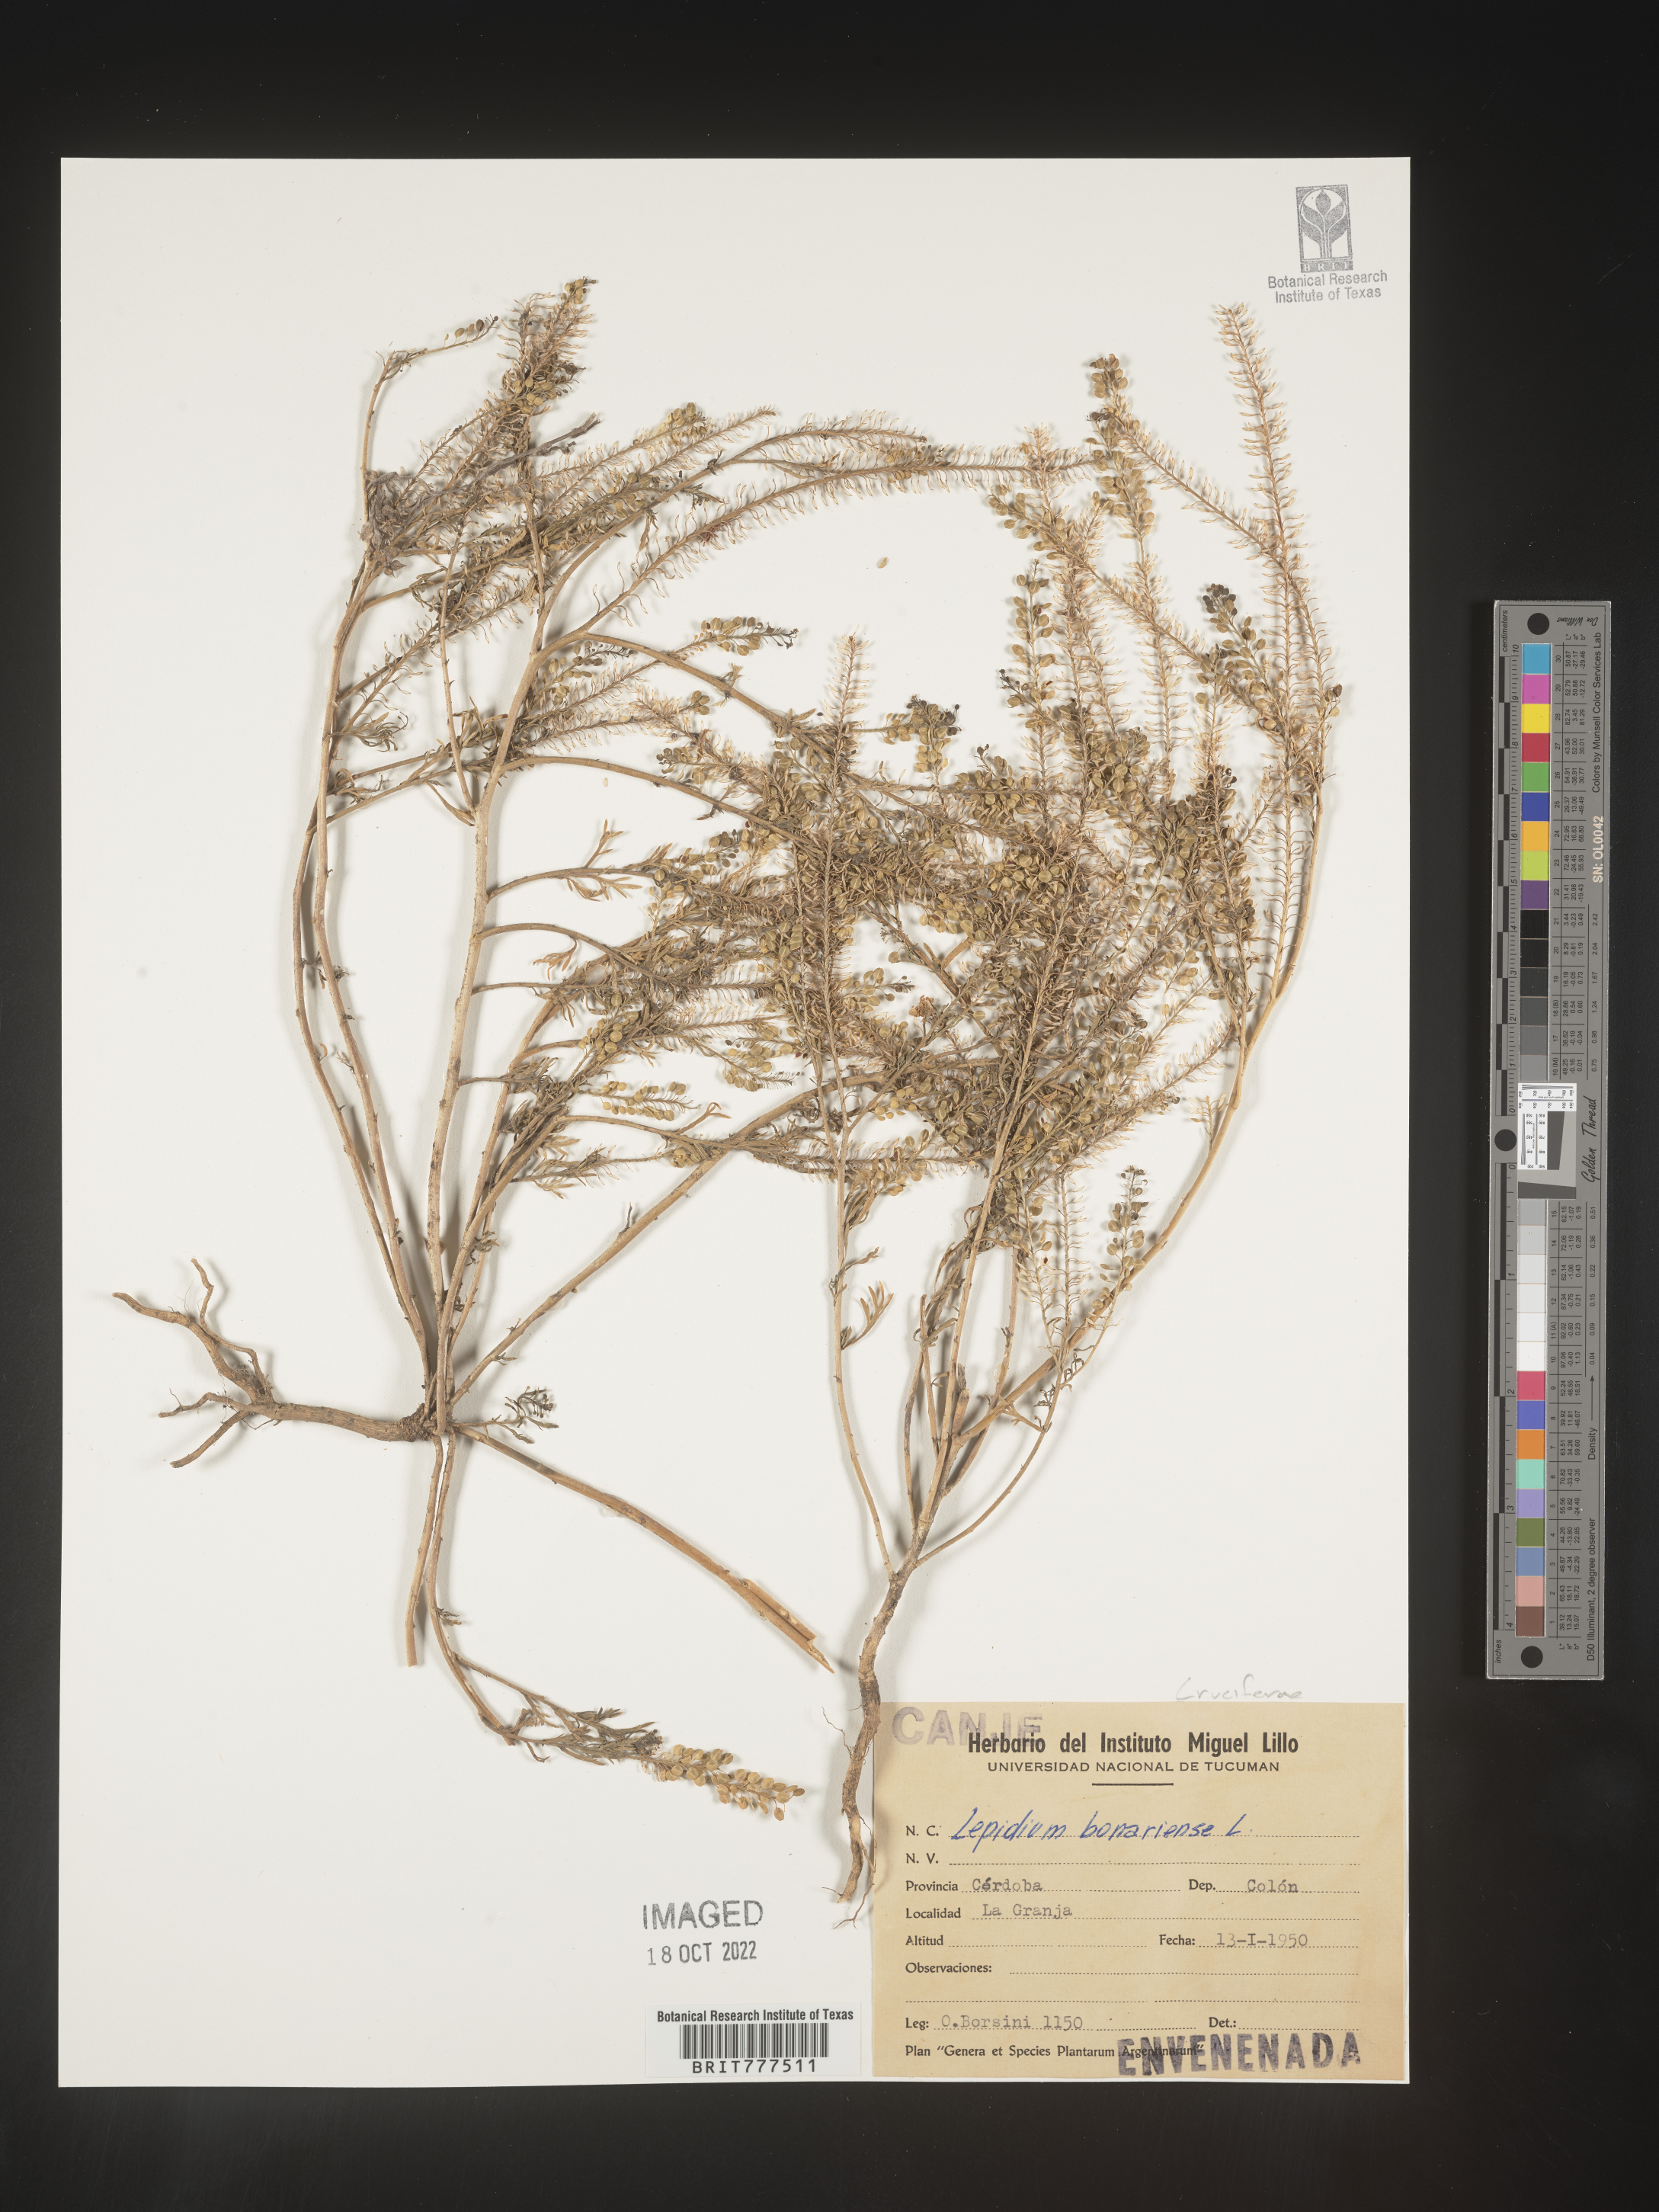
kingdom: Plantae
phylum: Tracheophyta
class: Magnoliopsida
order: Brassicales
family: Brassicaceae
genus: Lepidium
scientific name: Lepidium
